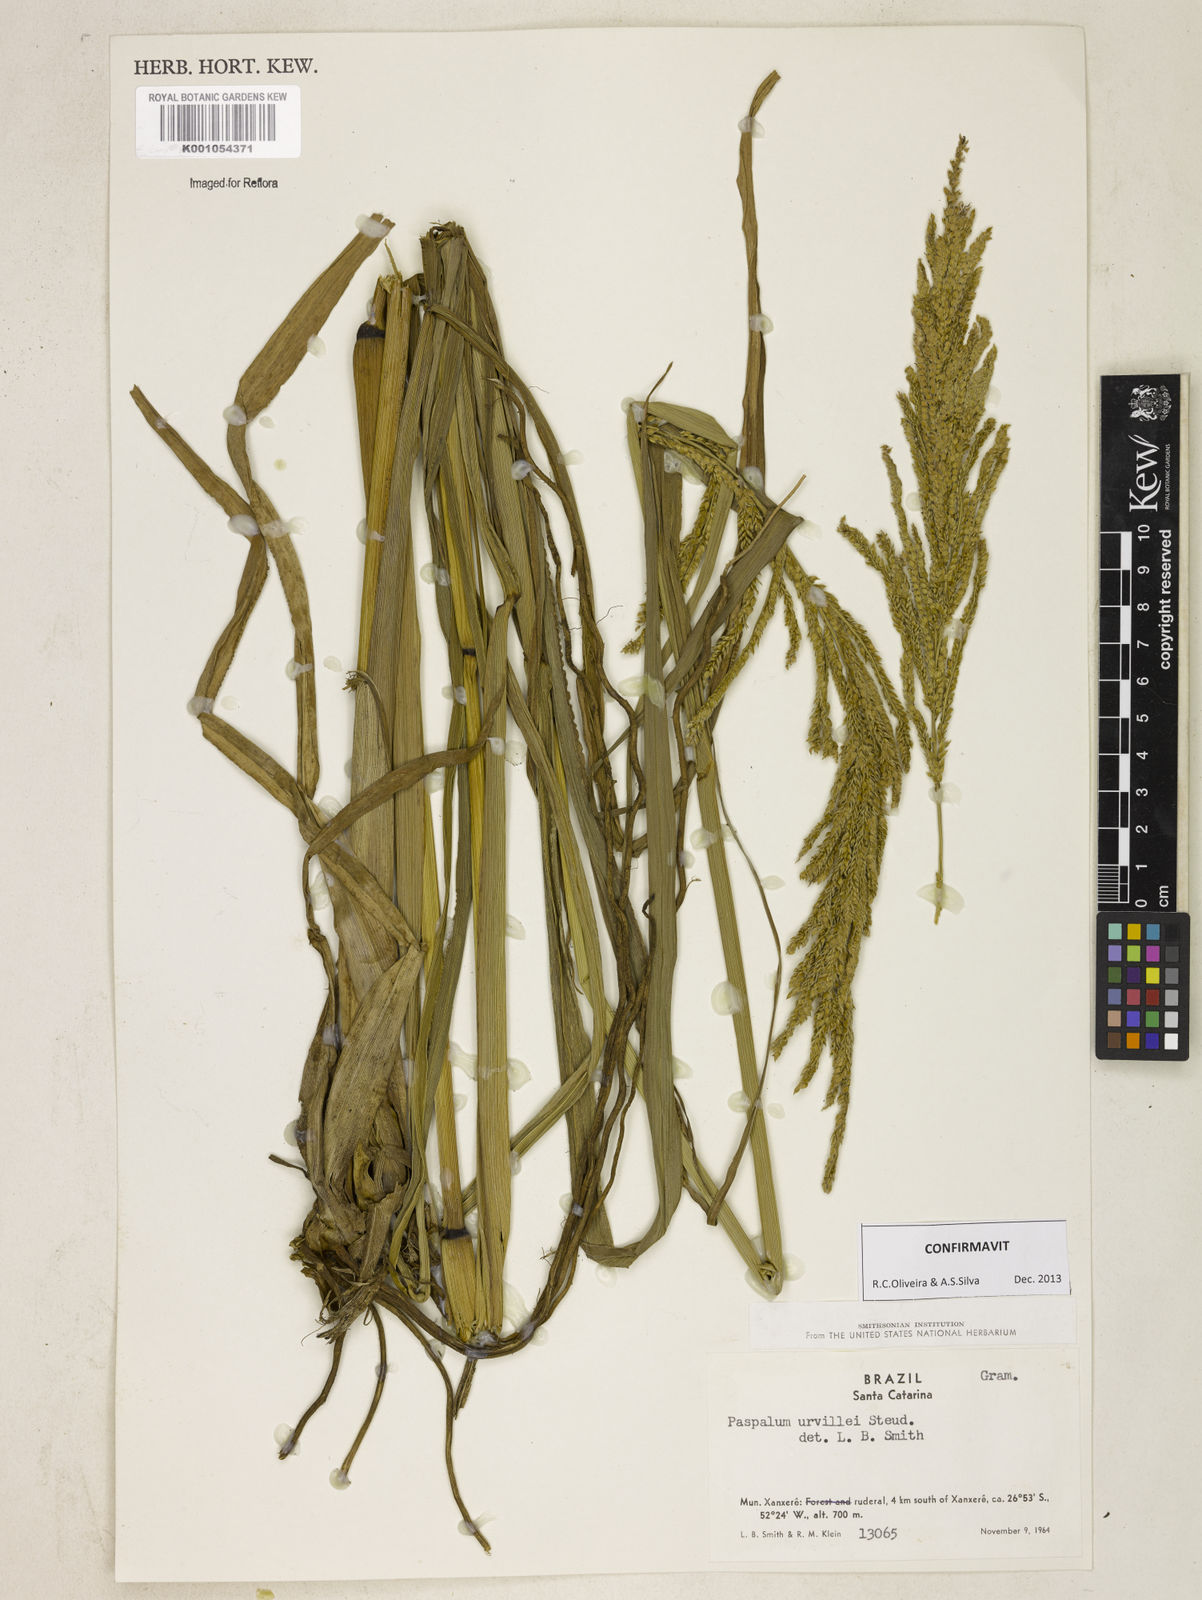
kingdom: Plantae
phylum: Tracheophyta
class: Liliopsida
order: Poales
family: Poaceae
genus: Paspalum
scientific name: Paspalum urvillei
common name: Vasey's grass
